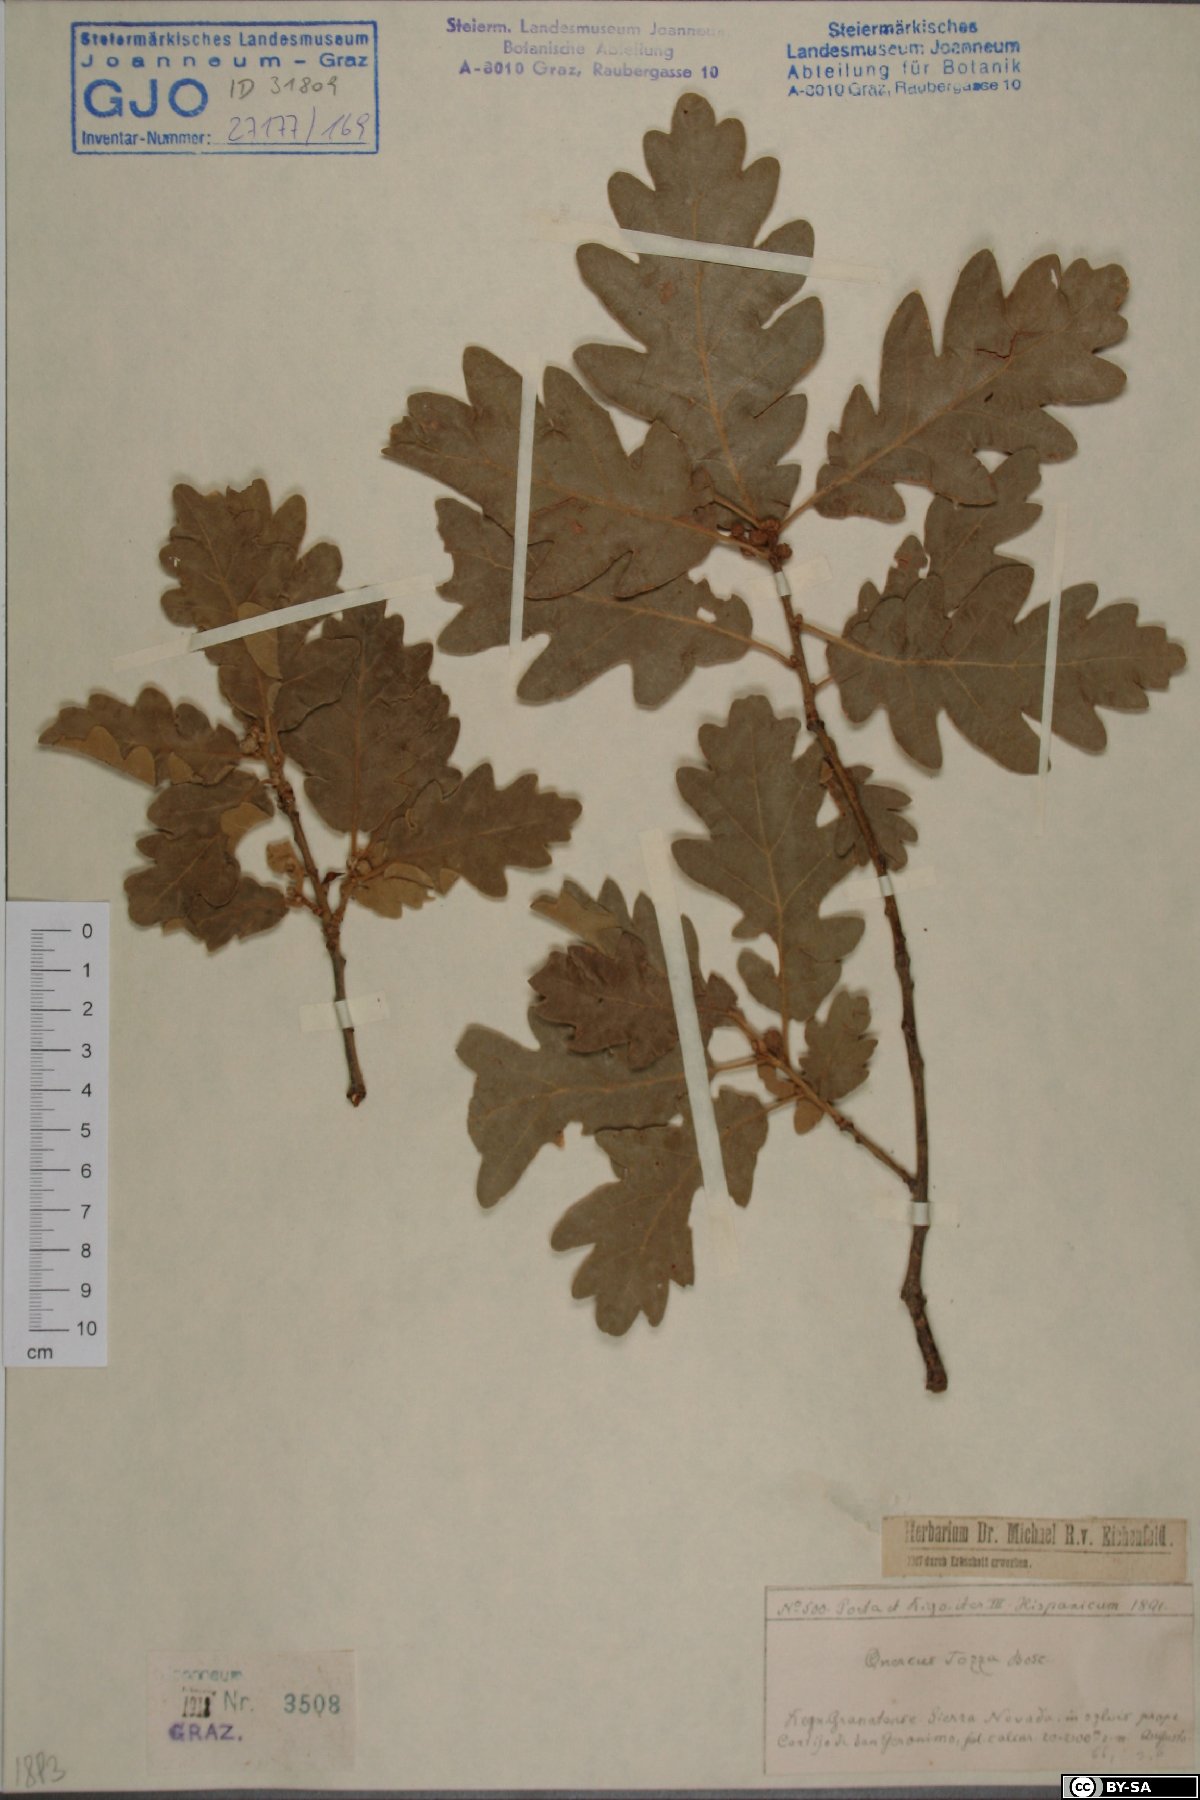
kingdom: Plantae
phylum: Tracheophyta
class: Magnoliopsida
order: Fagales
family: Fagaceae
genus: Quercus
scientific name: Quercus pyrenaica
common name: Pyrenean oak
